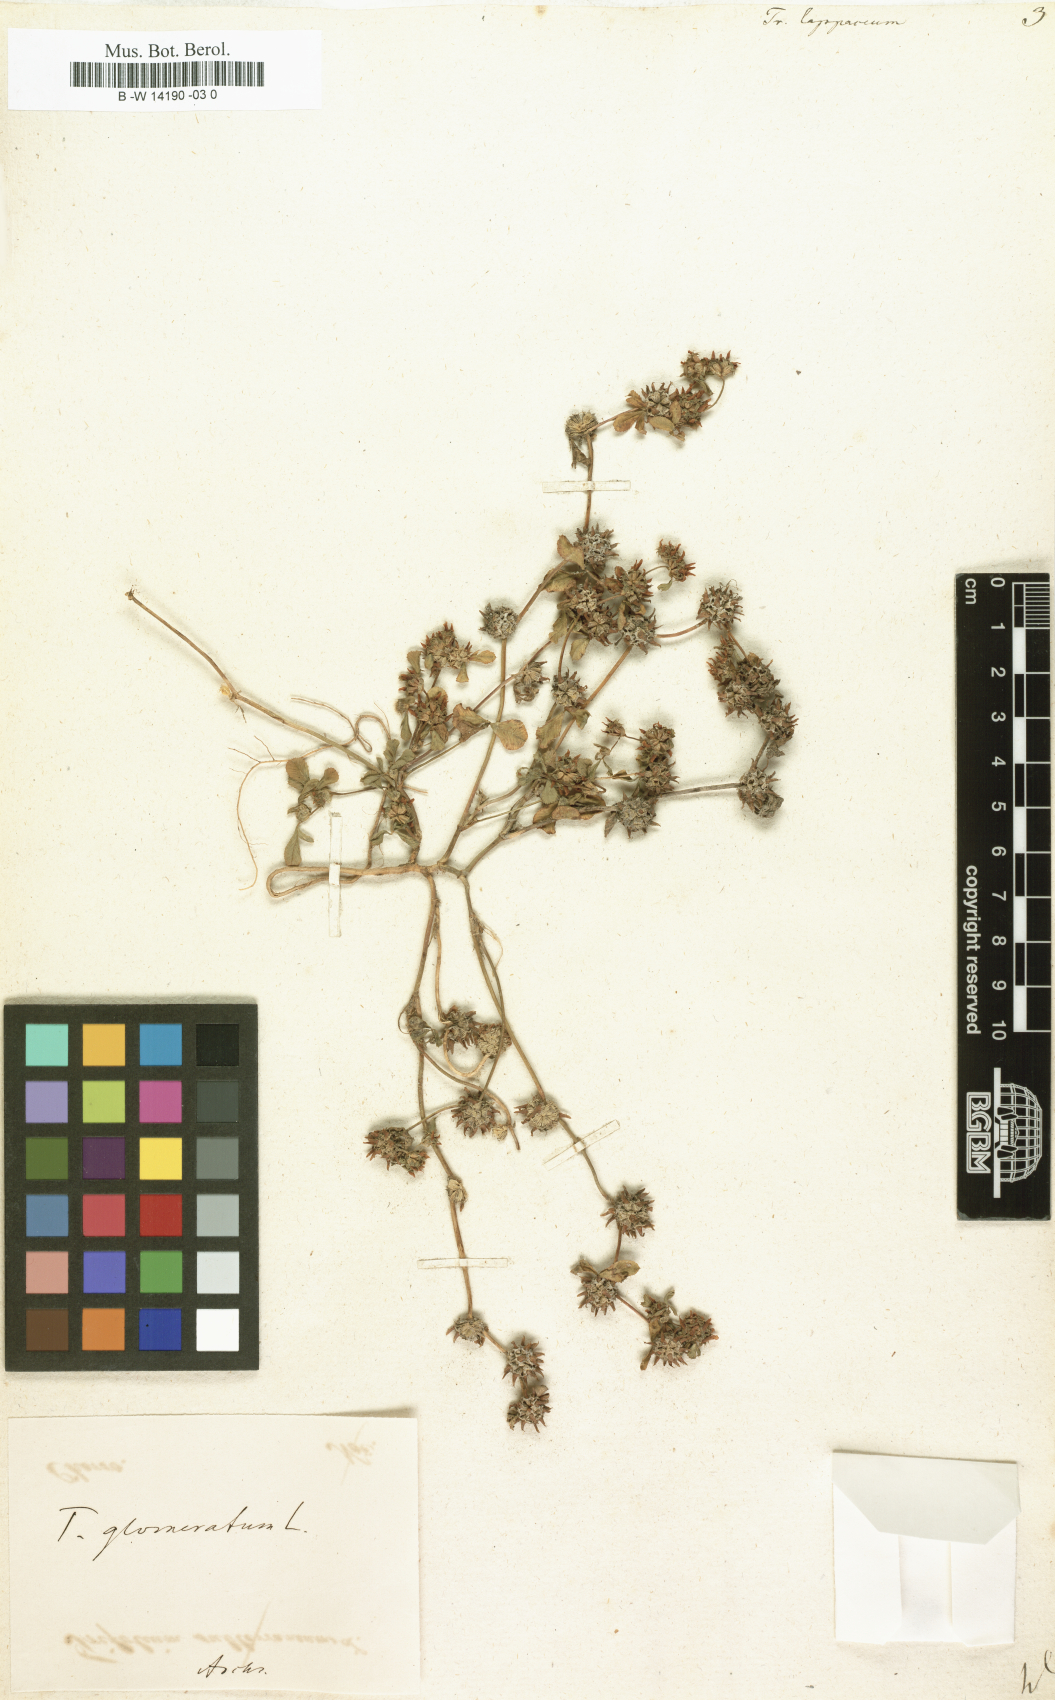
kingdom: Plantae
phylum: Tracheophyta
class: Magnoliopsida
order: Fabales
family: Fabaceae
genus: Trifolium
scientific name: Trifolium lappaceum
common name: Bur clover
